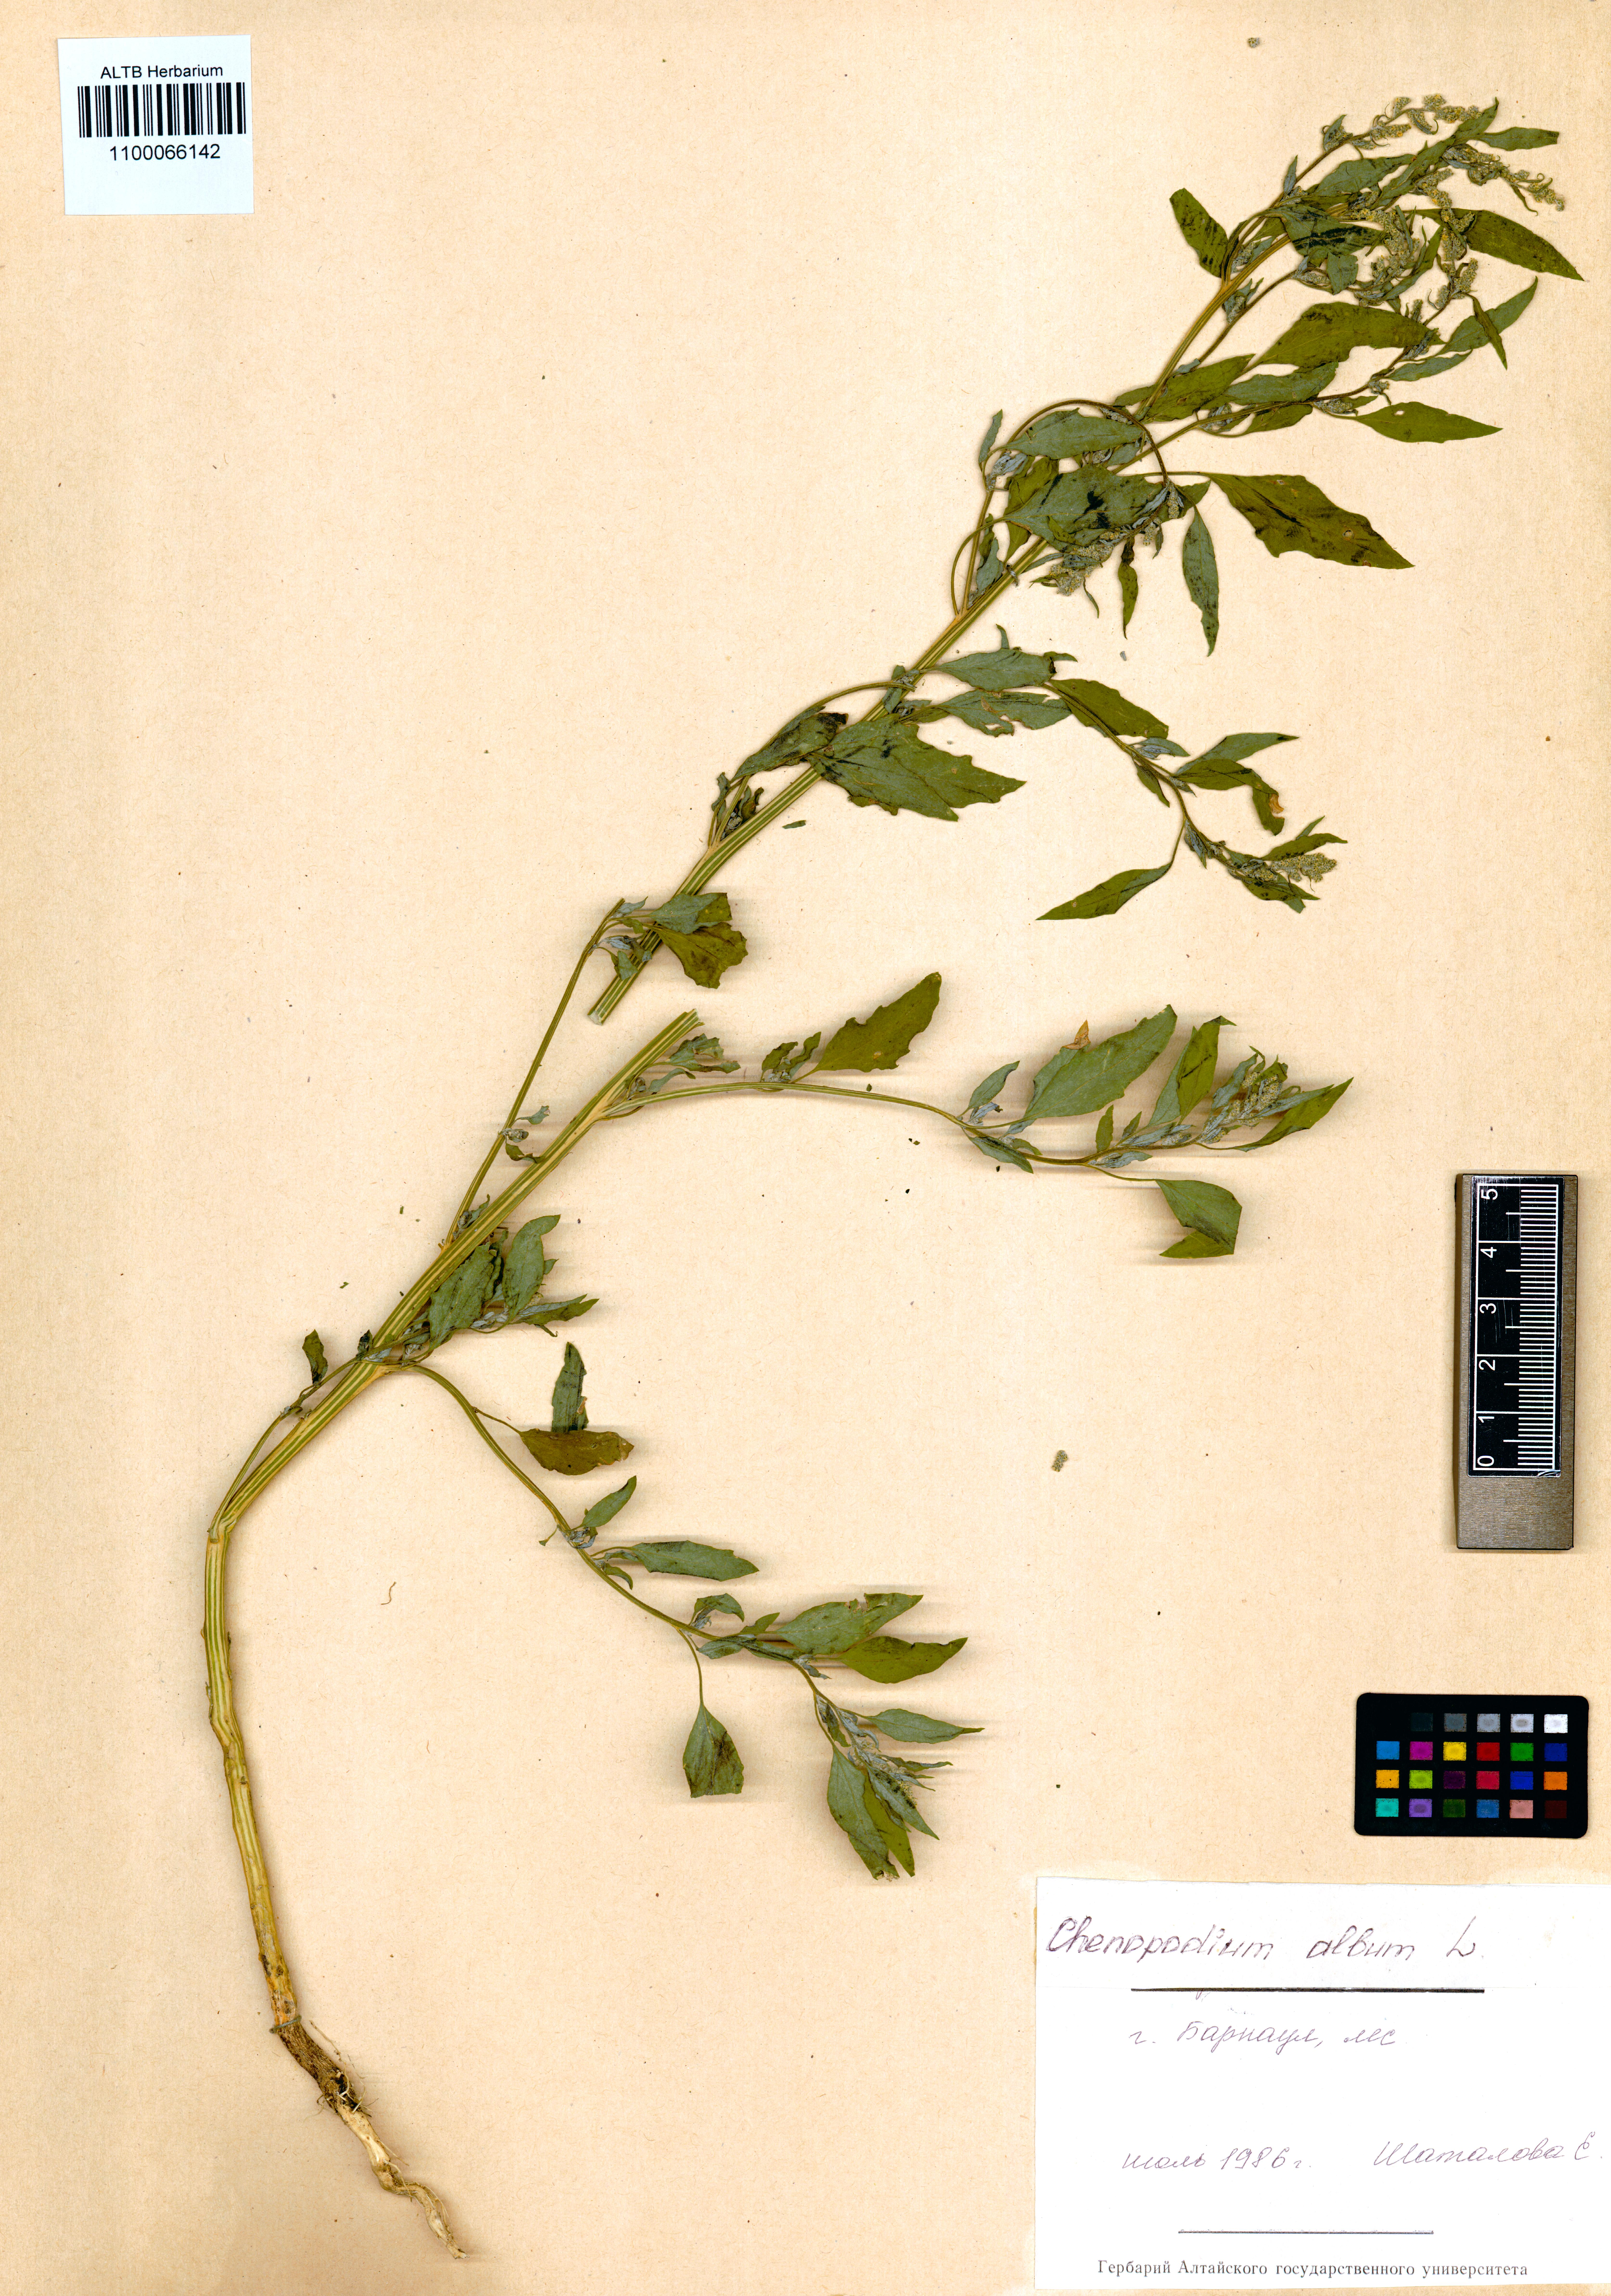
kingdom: Plantae
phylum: Tracheophyta
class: Magnoliopsida
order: Caryophyllales
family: Amaranthaceae
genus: Chenopodium
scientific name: Chenopodium album
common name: Fat-hen
